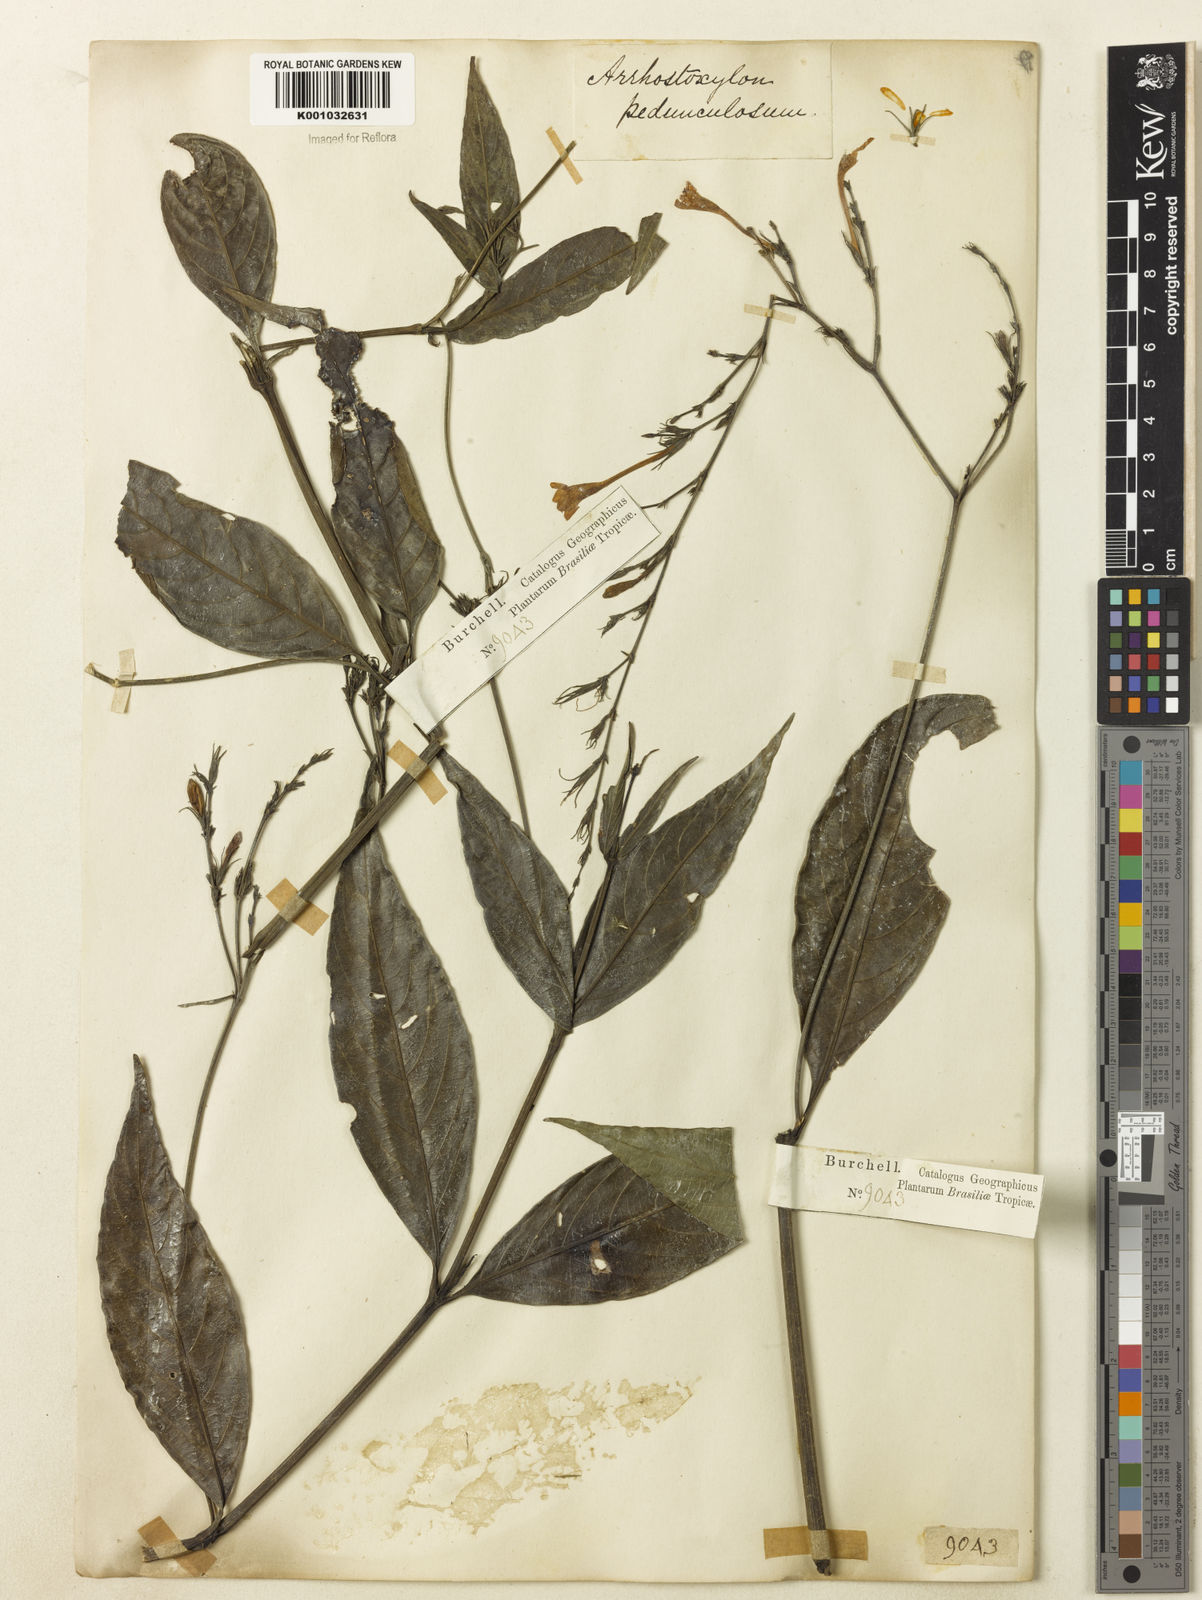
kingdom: Plantae
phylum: Tracheophyta
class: Magnoliopsida
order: Lamiales
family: Acanthaceae
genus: Ruellia
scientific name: Ruellia pedunculata
